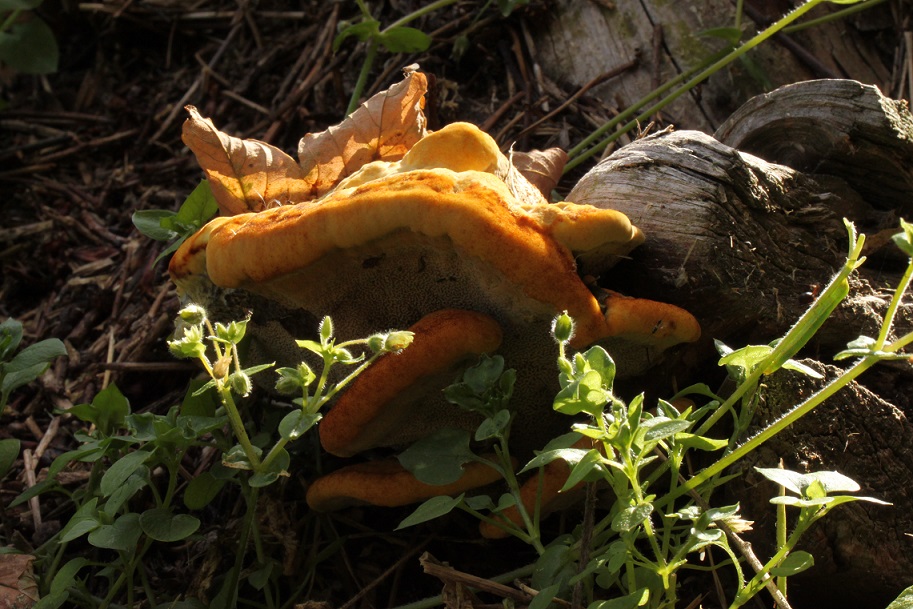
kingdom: Fungi
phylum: Basidiomycota
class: Agaricomycetes
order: Polyporales
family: Laetiporaceae
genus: Phaeolus
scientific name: Phaeolus schweinitzii
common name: brunporesvamp
